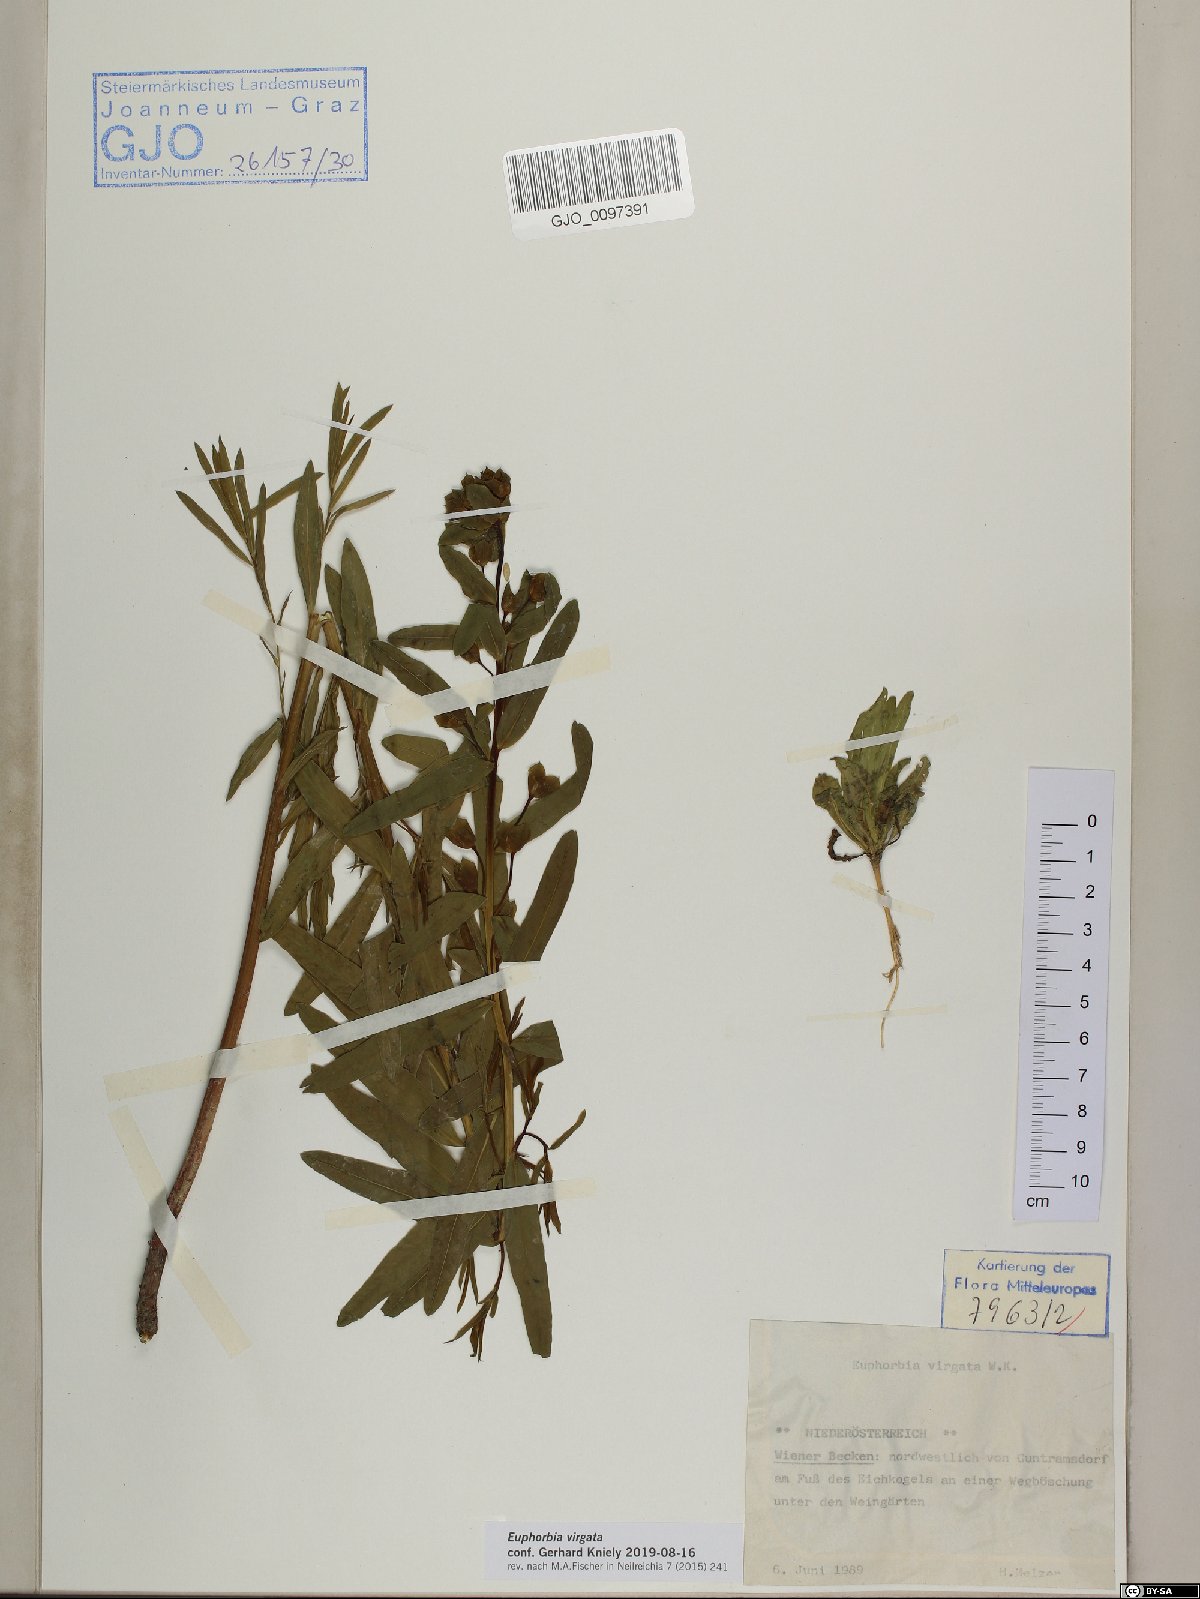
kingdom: Plantae
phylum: Tracheophyta
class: Magnoliopsida
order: Malpighiales
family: Euphorbiaceae
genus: Euphorbia
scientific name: Euphorbia virgata
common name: Leafy spurge
